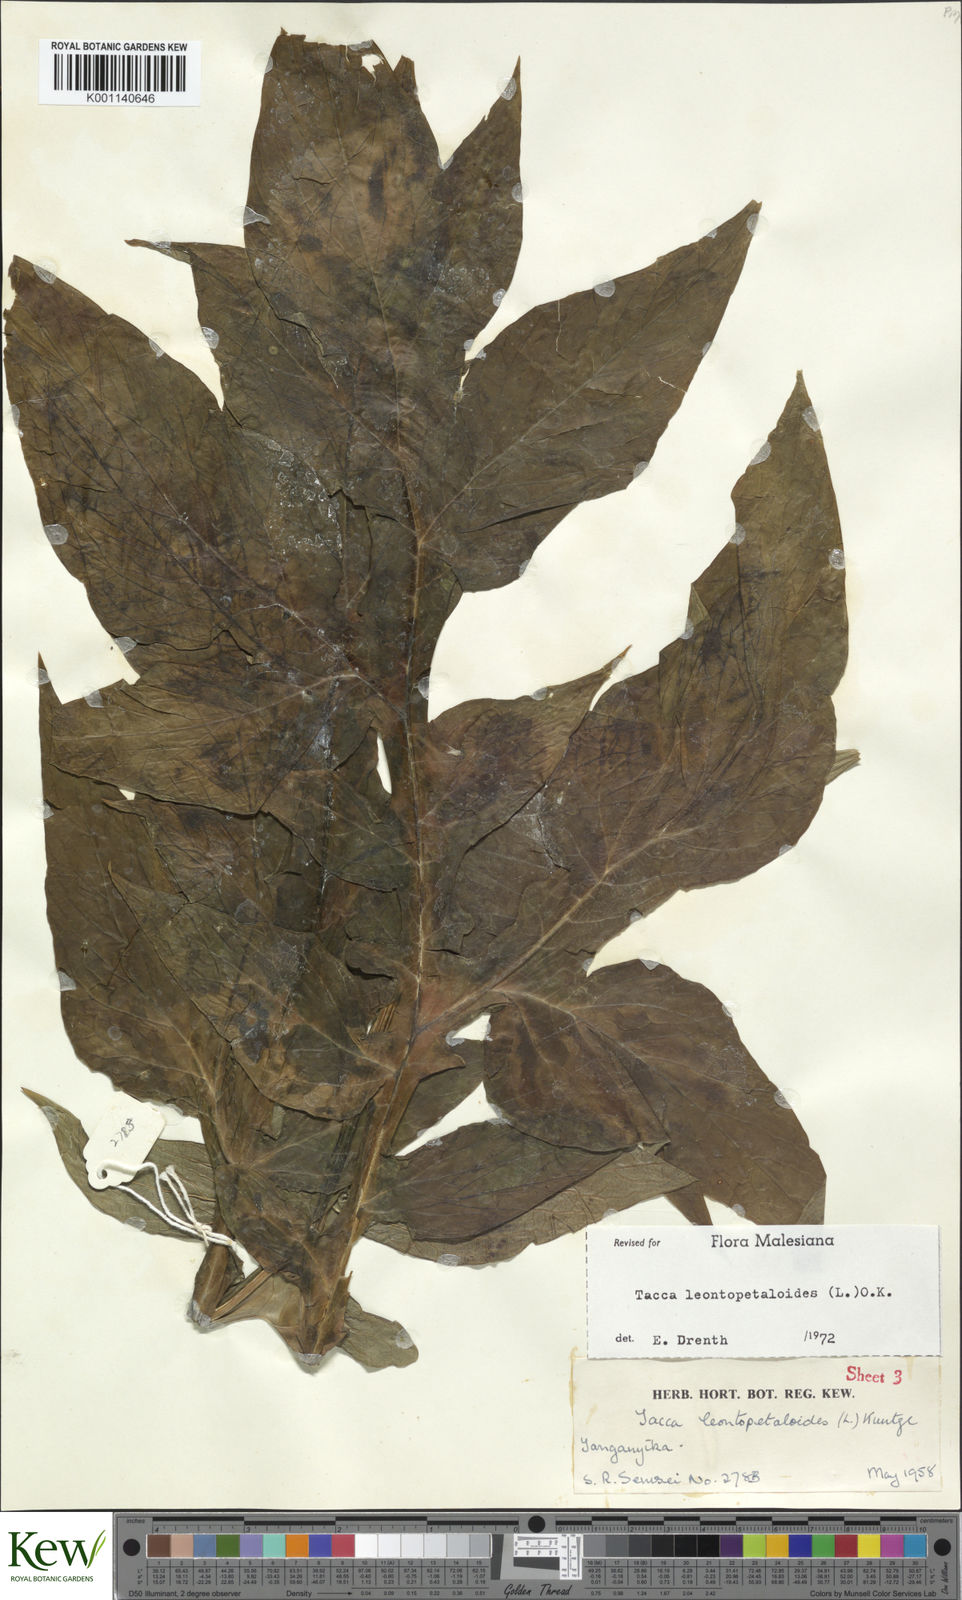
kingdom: Plantae
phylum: Tracheophyta
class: Liliopsida
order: Dioscoreales
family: Dioscoreaceae
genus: Tacca
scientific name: Tacca leontopetaloides
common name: Arrowroot
